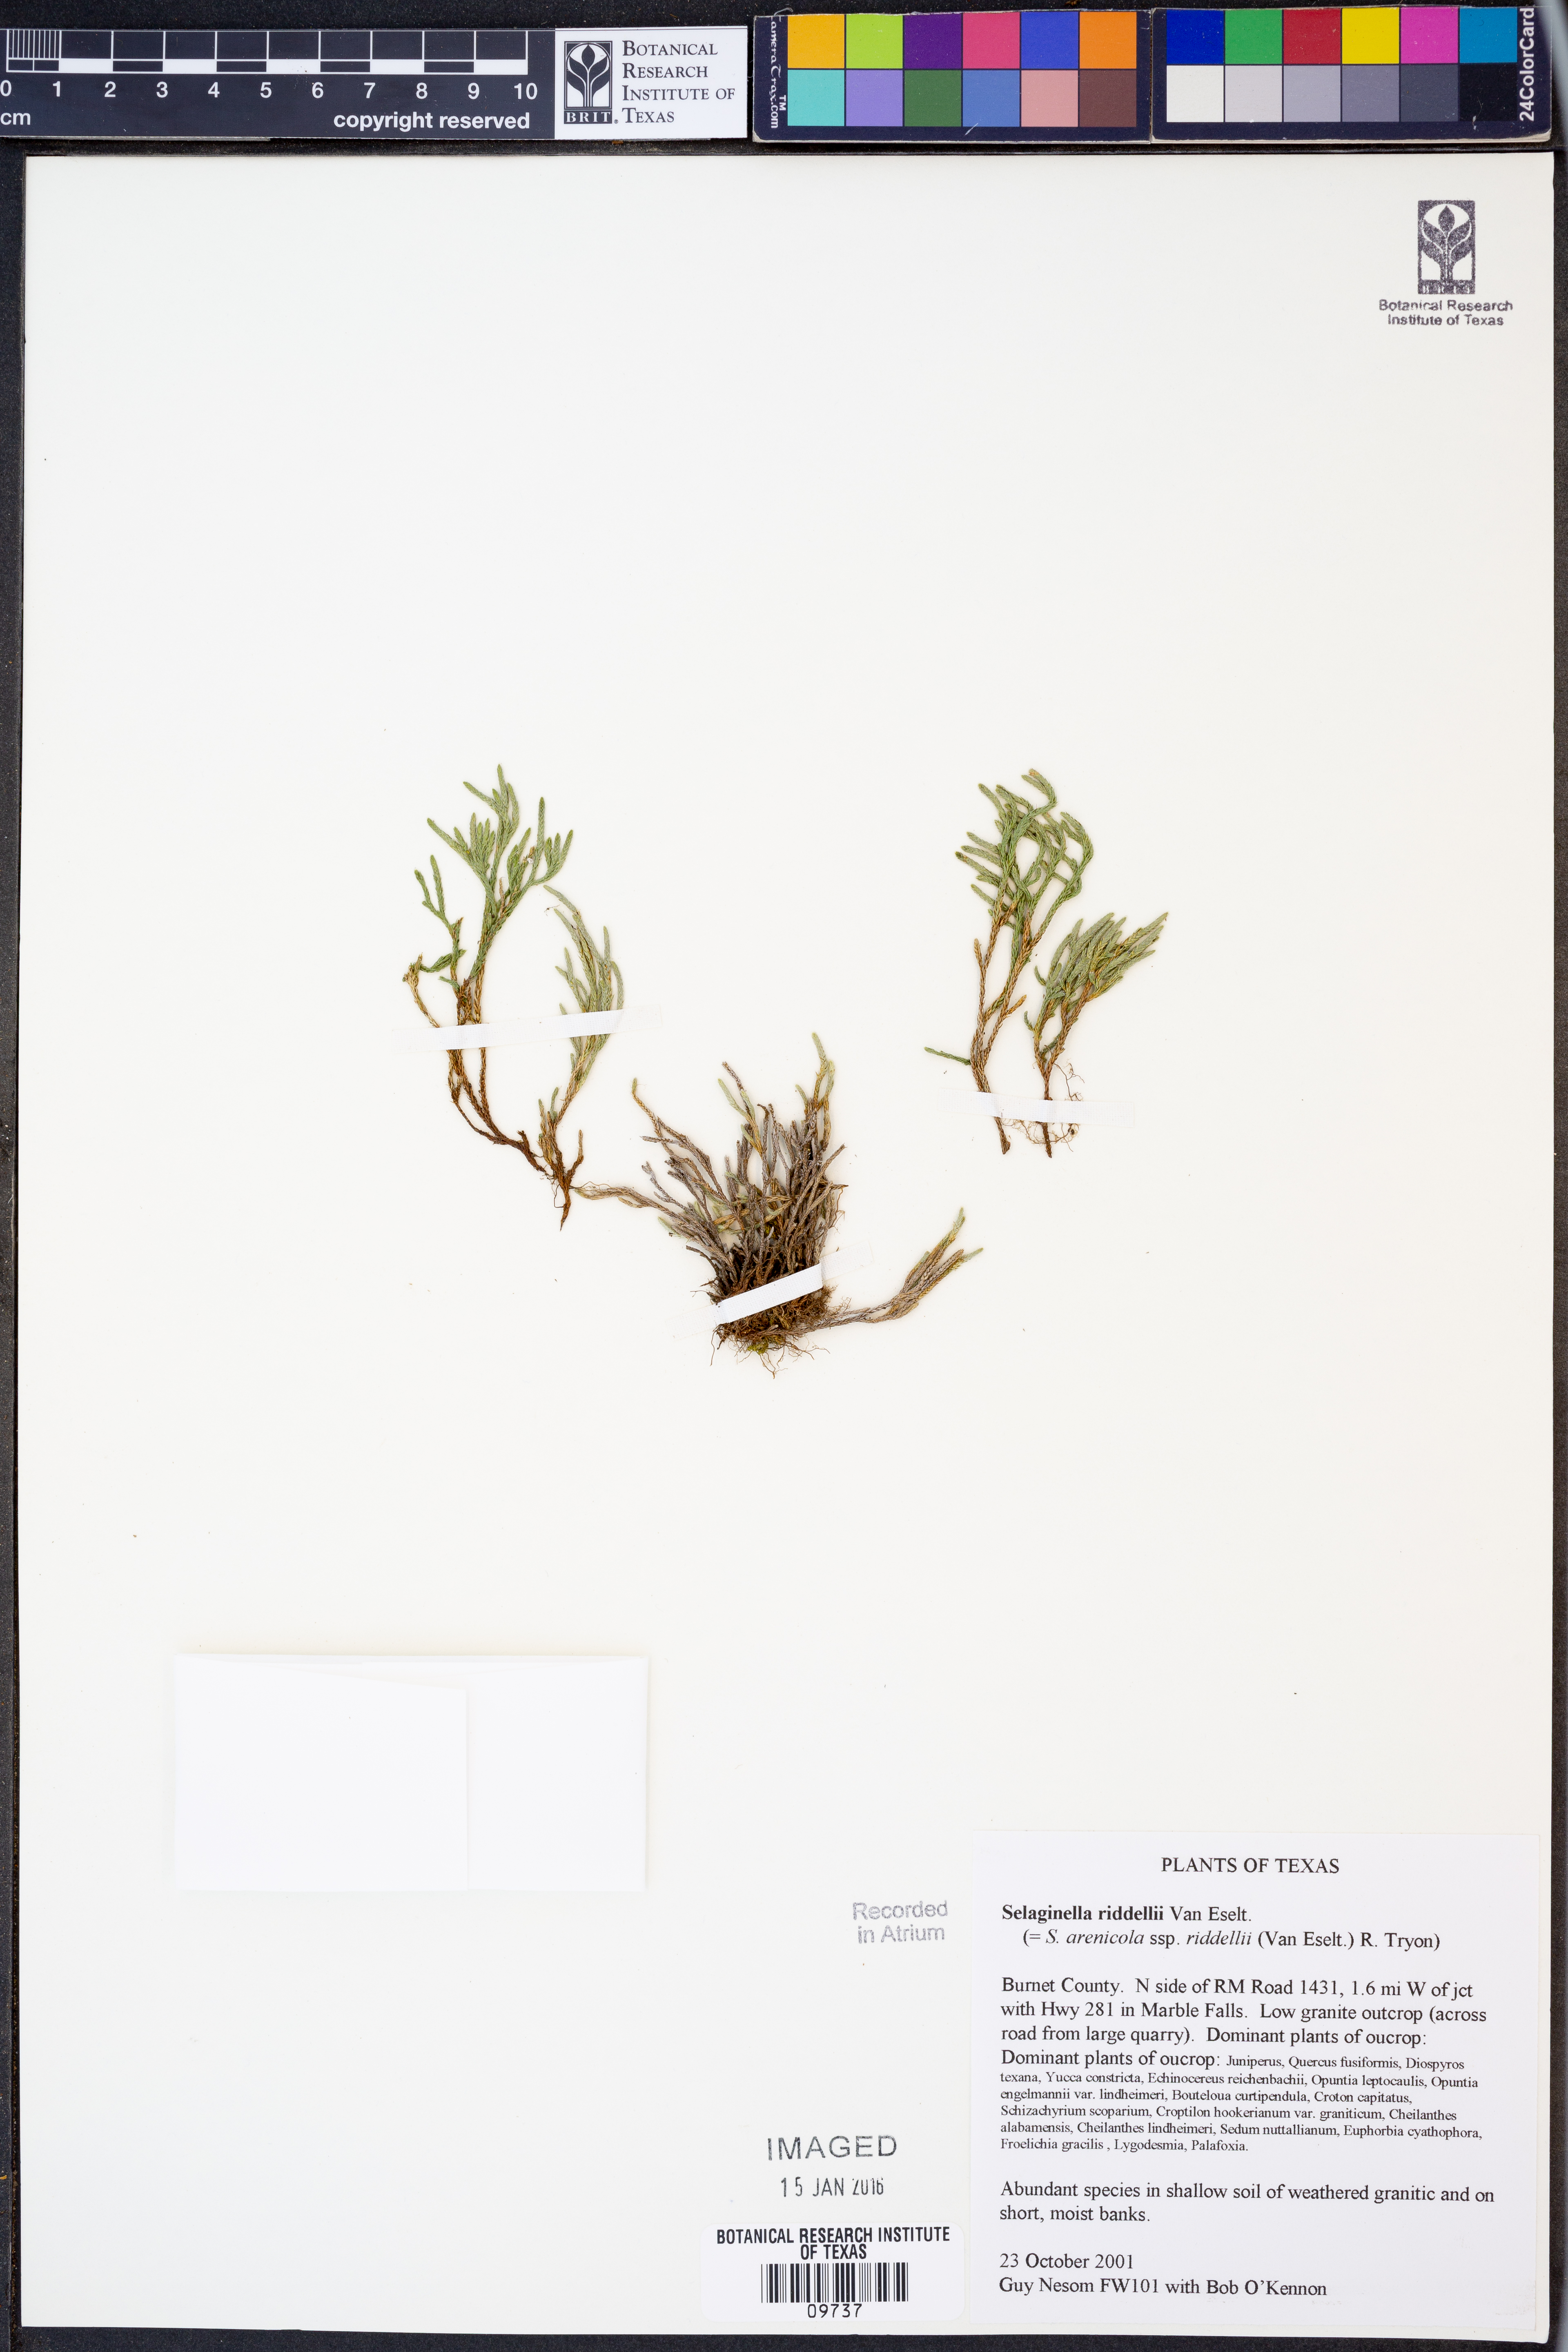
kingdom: Plantae
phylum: Tracheophyta
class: Lycopodiopsida
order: Selaginellales
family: Selaginellaceae
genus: Selaginella
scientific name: Selaginella corallina
